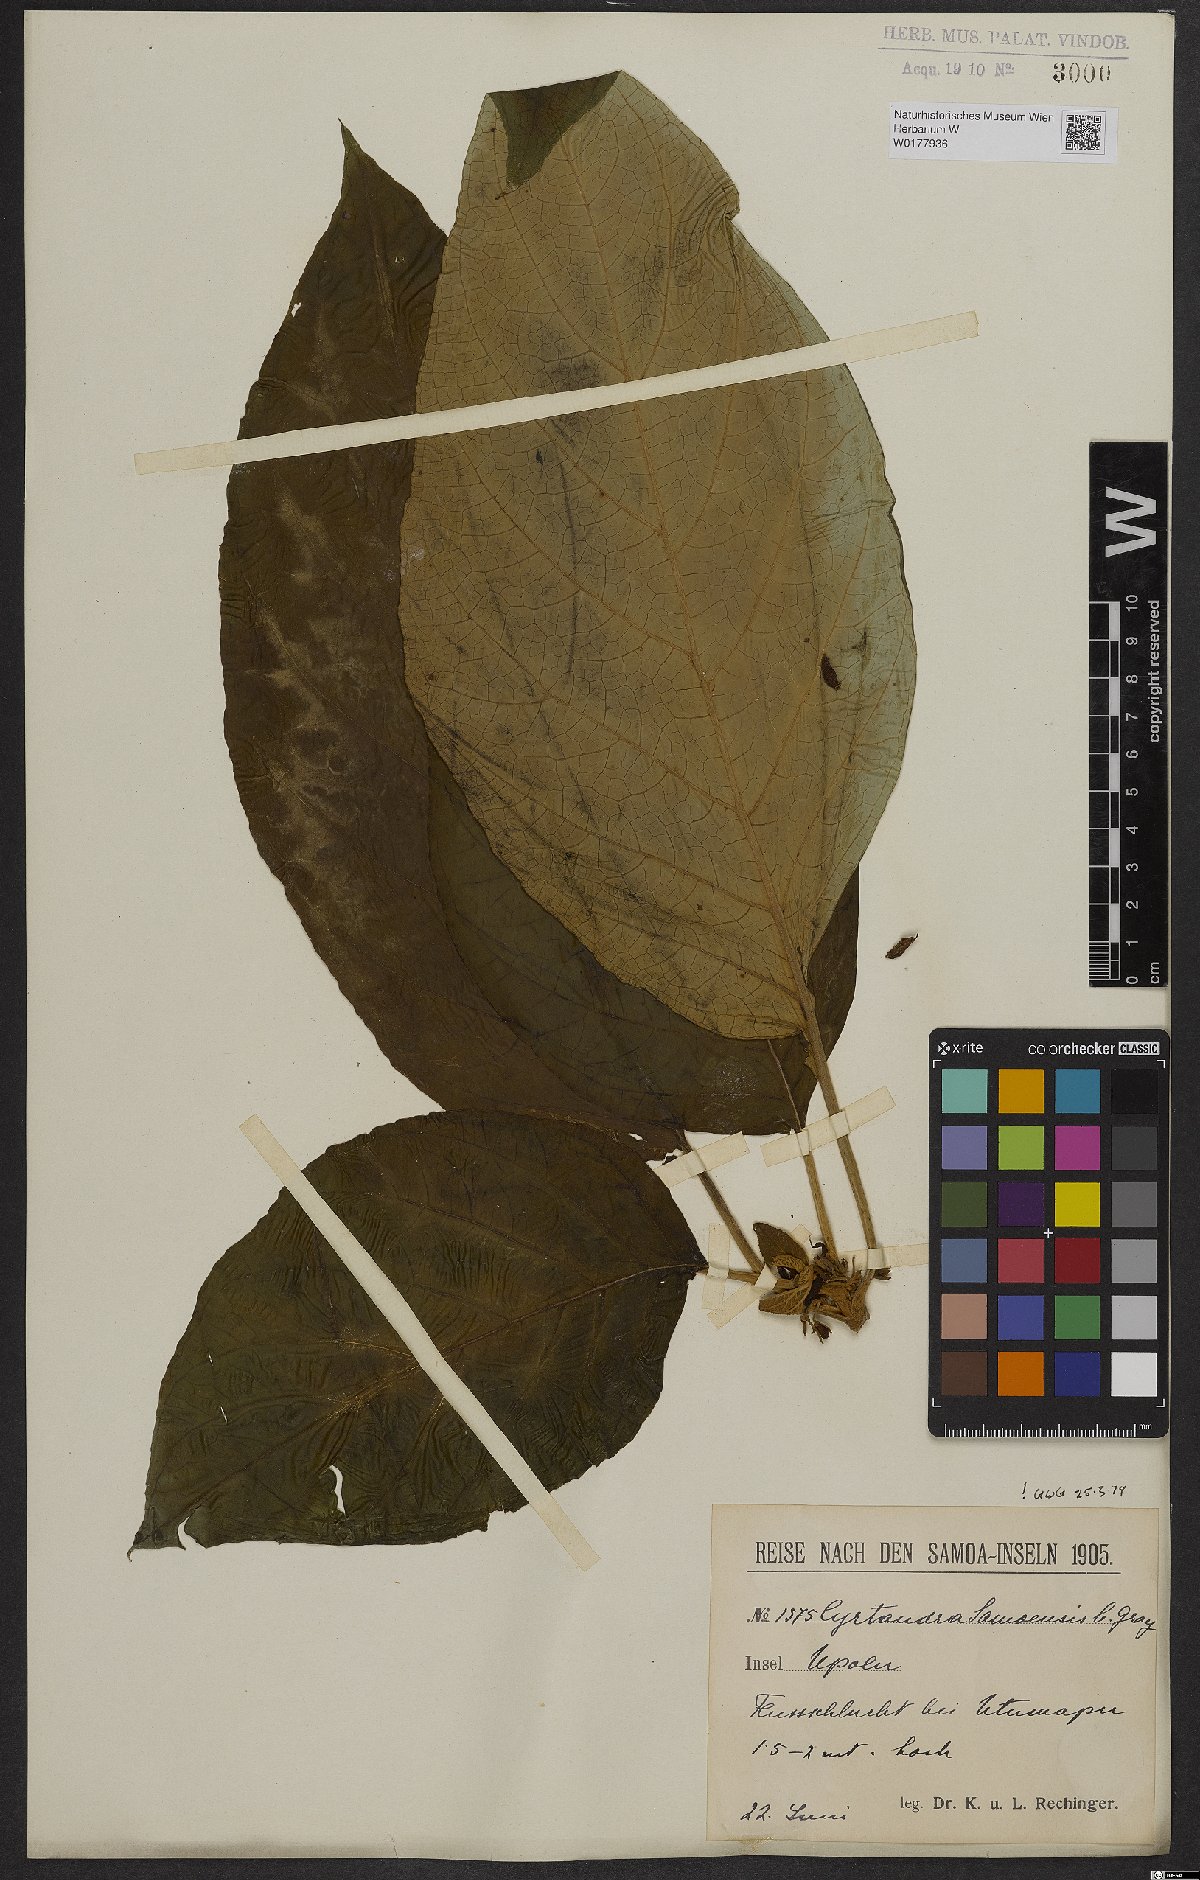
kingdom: Plantae
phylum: Tracheophyta
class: Magnoliopsida
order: Lamiales
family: Gesneriaceae
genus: Cyrtandra
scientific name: Cyrtandra samoensis
